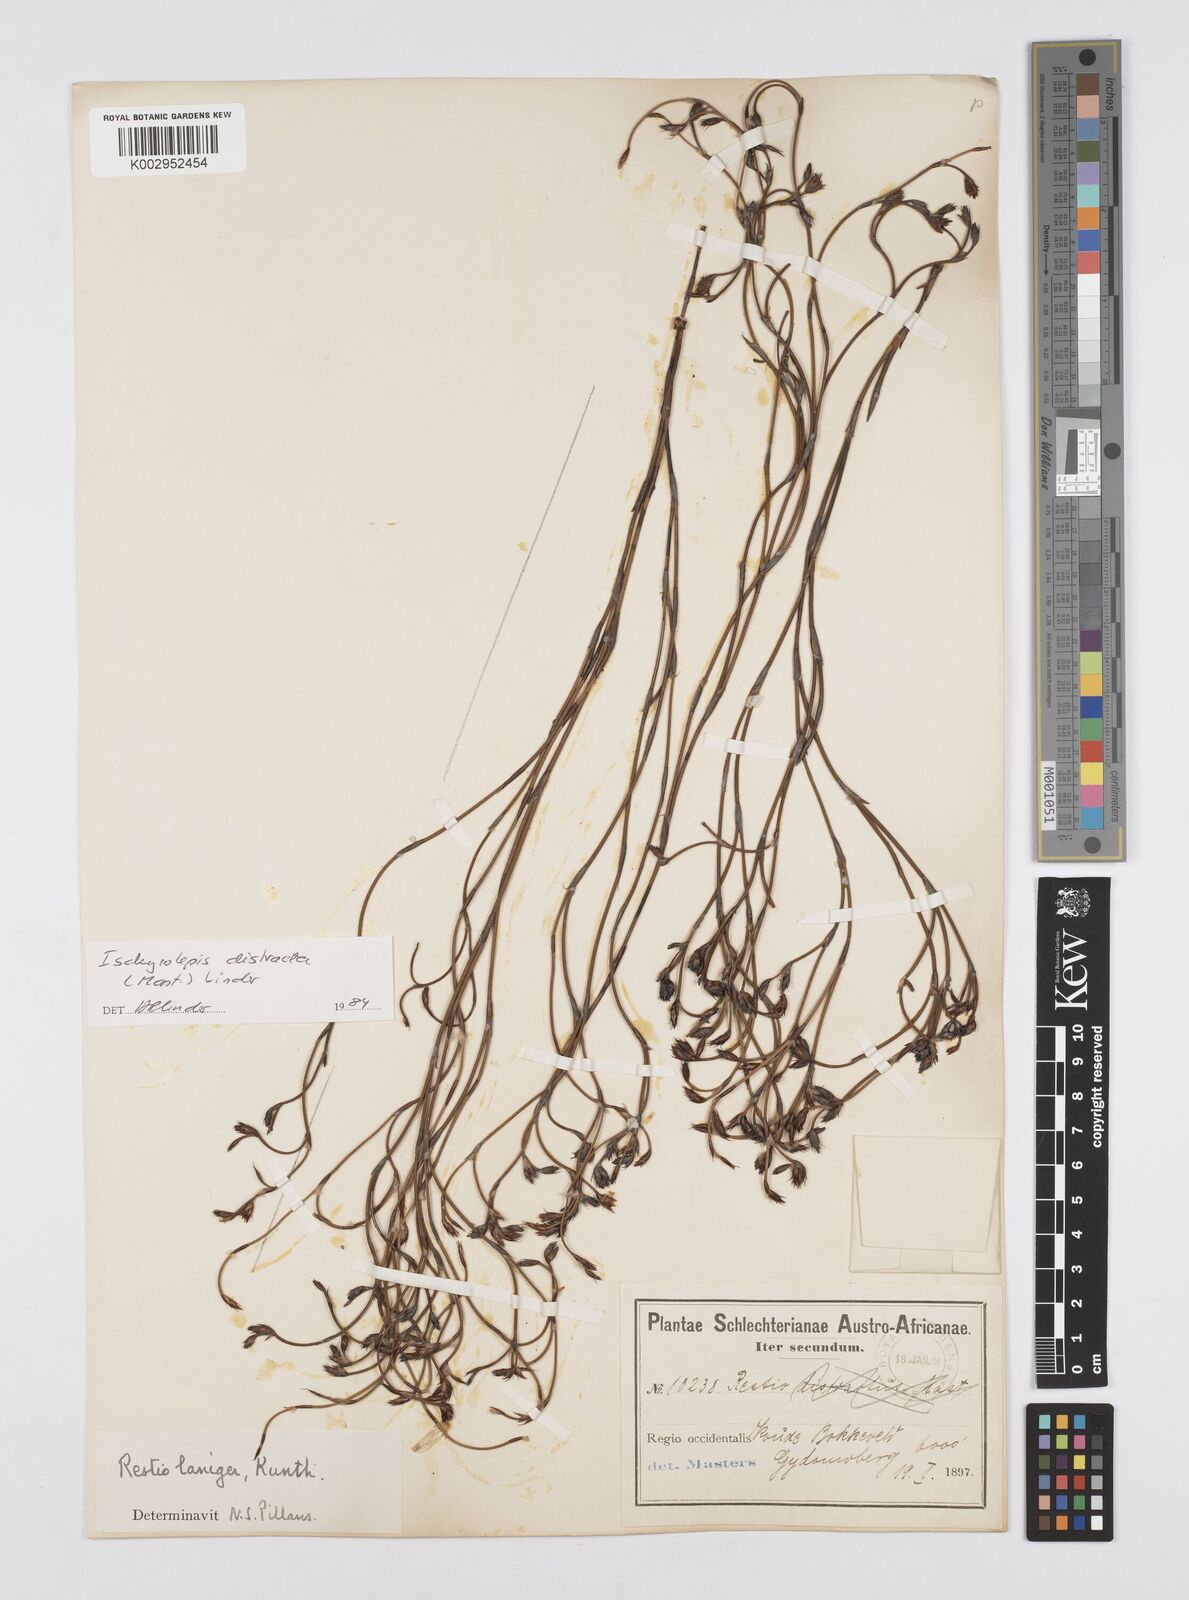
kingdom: Plantae
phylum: Tracheophyta
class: Liliopsida
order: Poales
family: Restionaceae
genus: Restio
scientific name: Restio distractus
